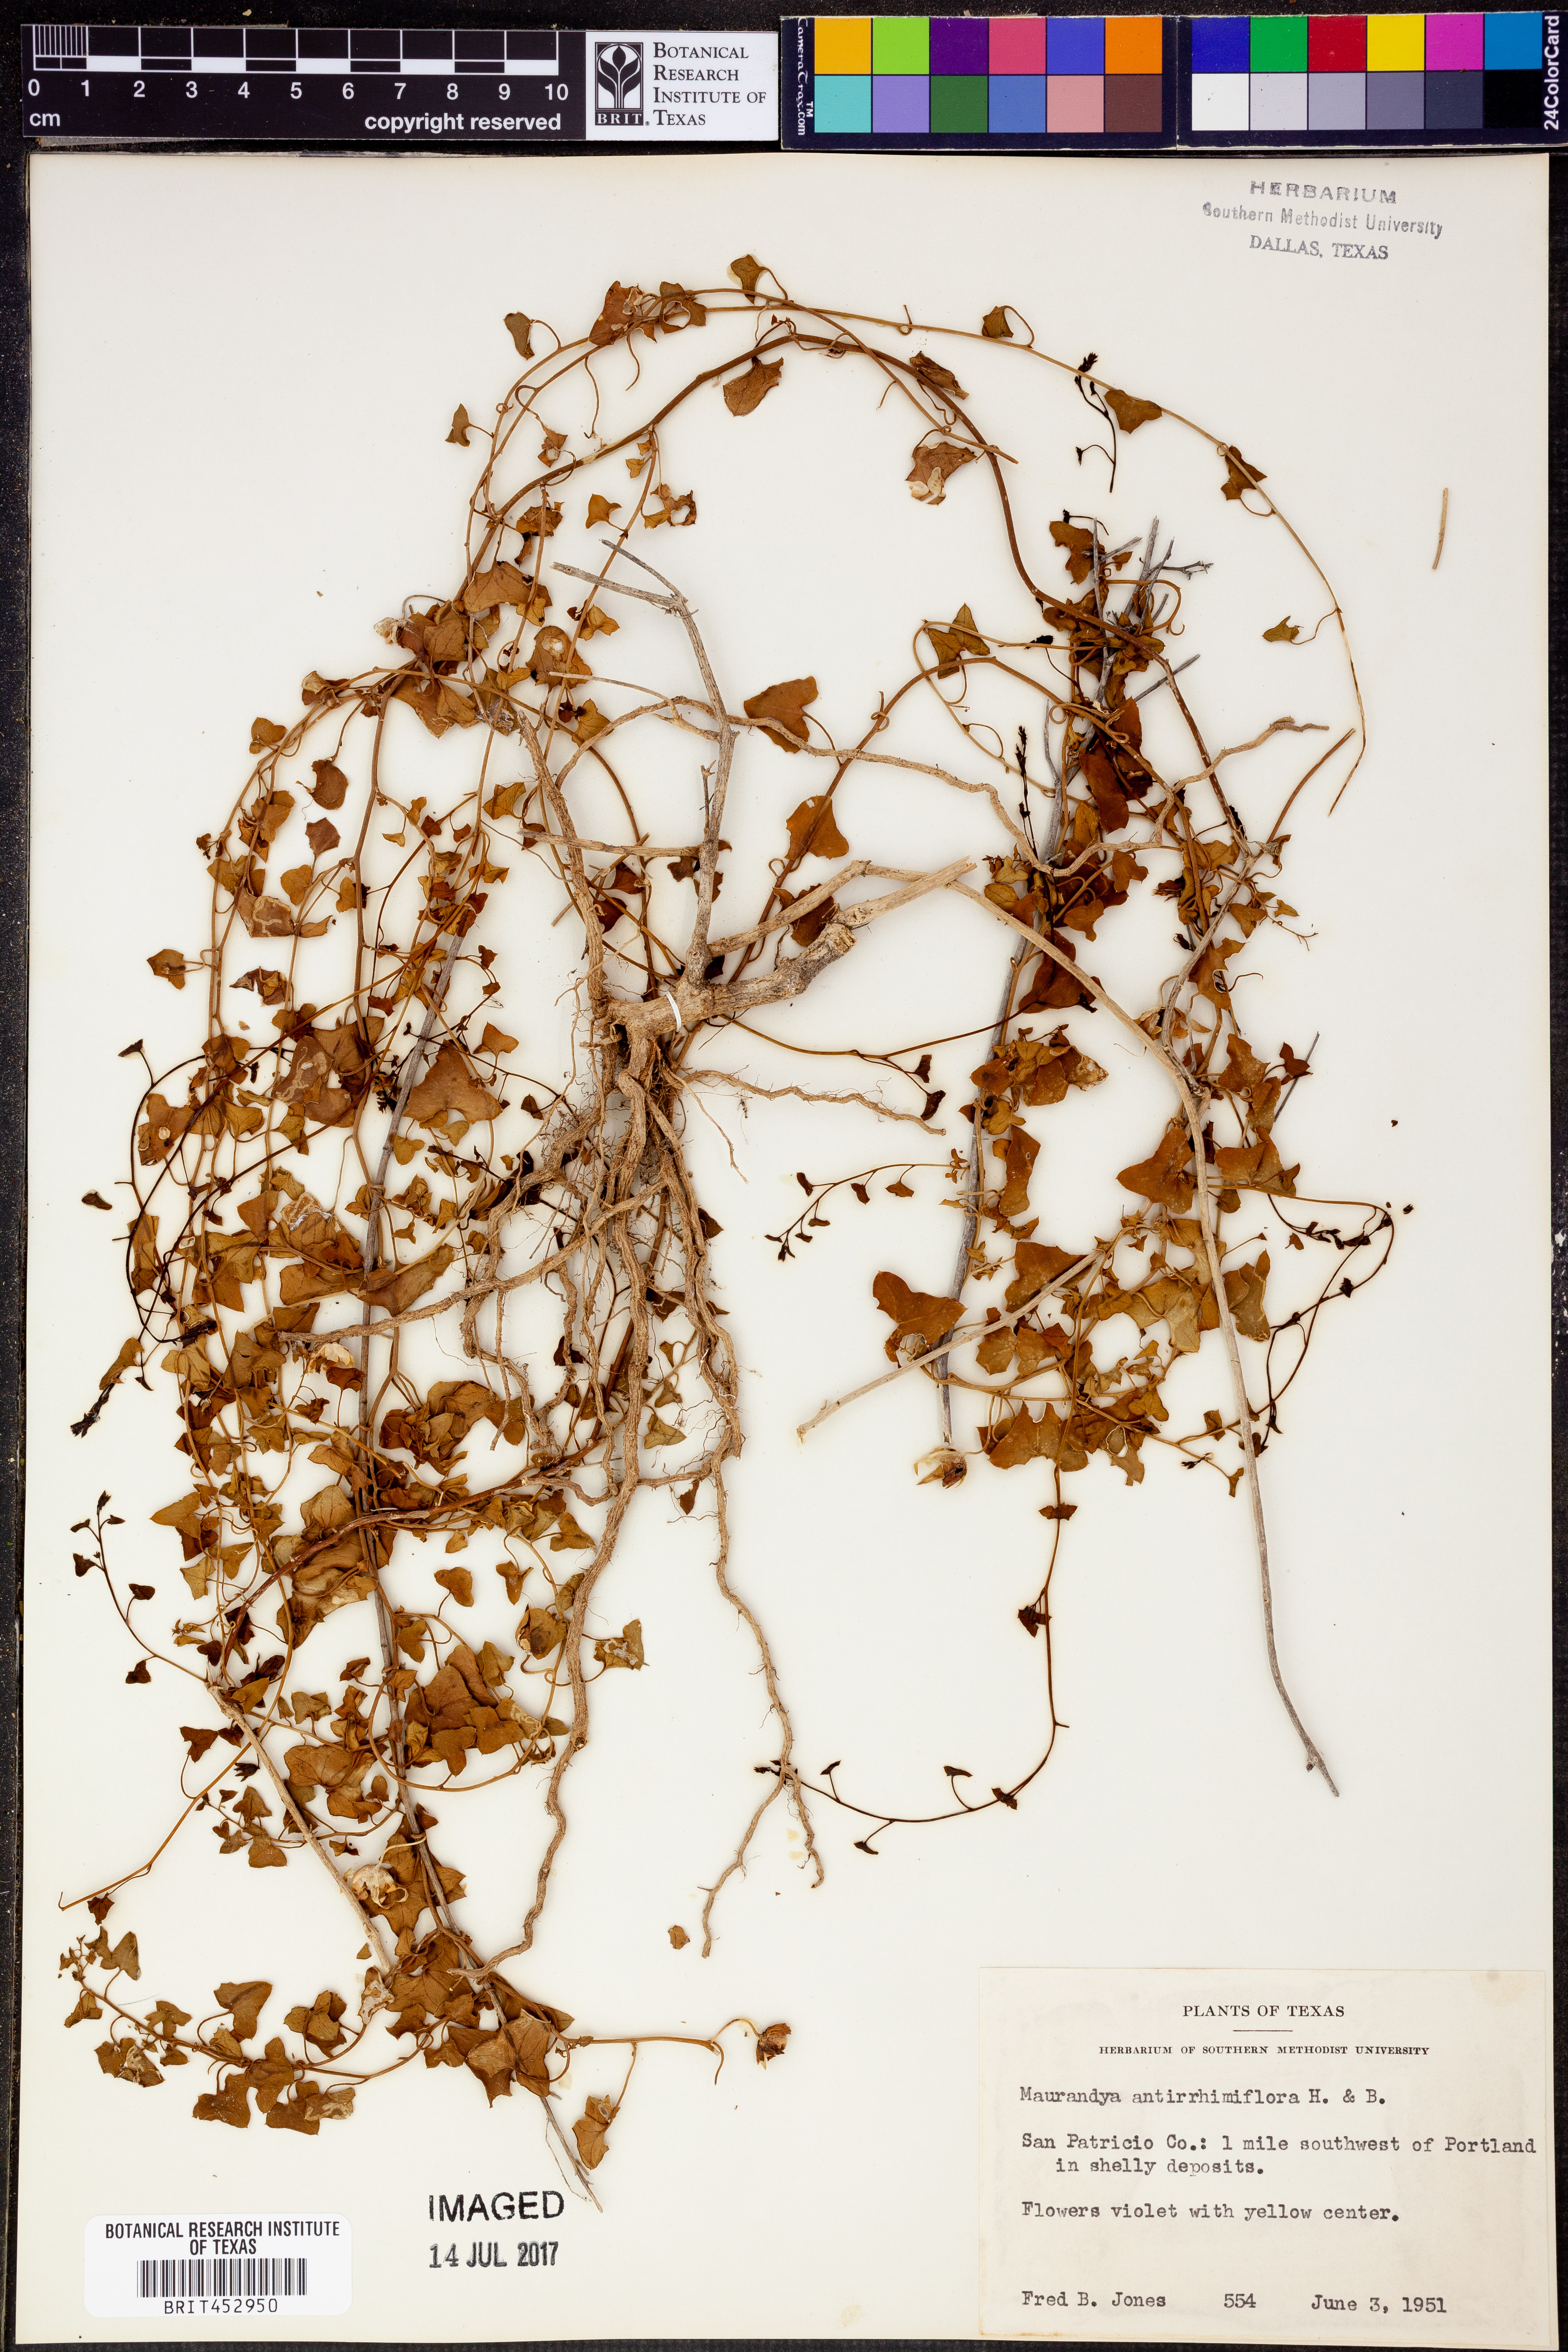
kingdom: Plantae
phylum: Tracheophyta
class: Magnoliopsida
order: Lamiales
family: Plantaginaceae
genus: Maurandella
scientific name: Maurandella antirrhiniflora
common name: Violet twining-snapdragon
